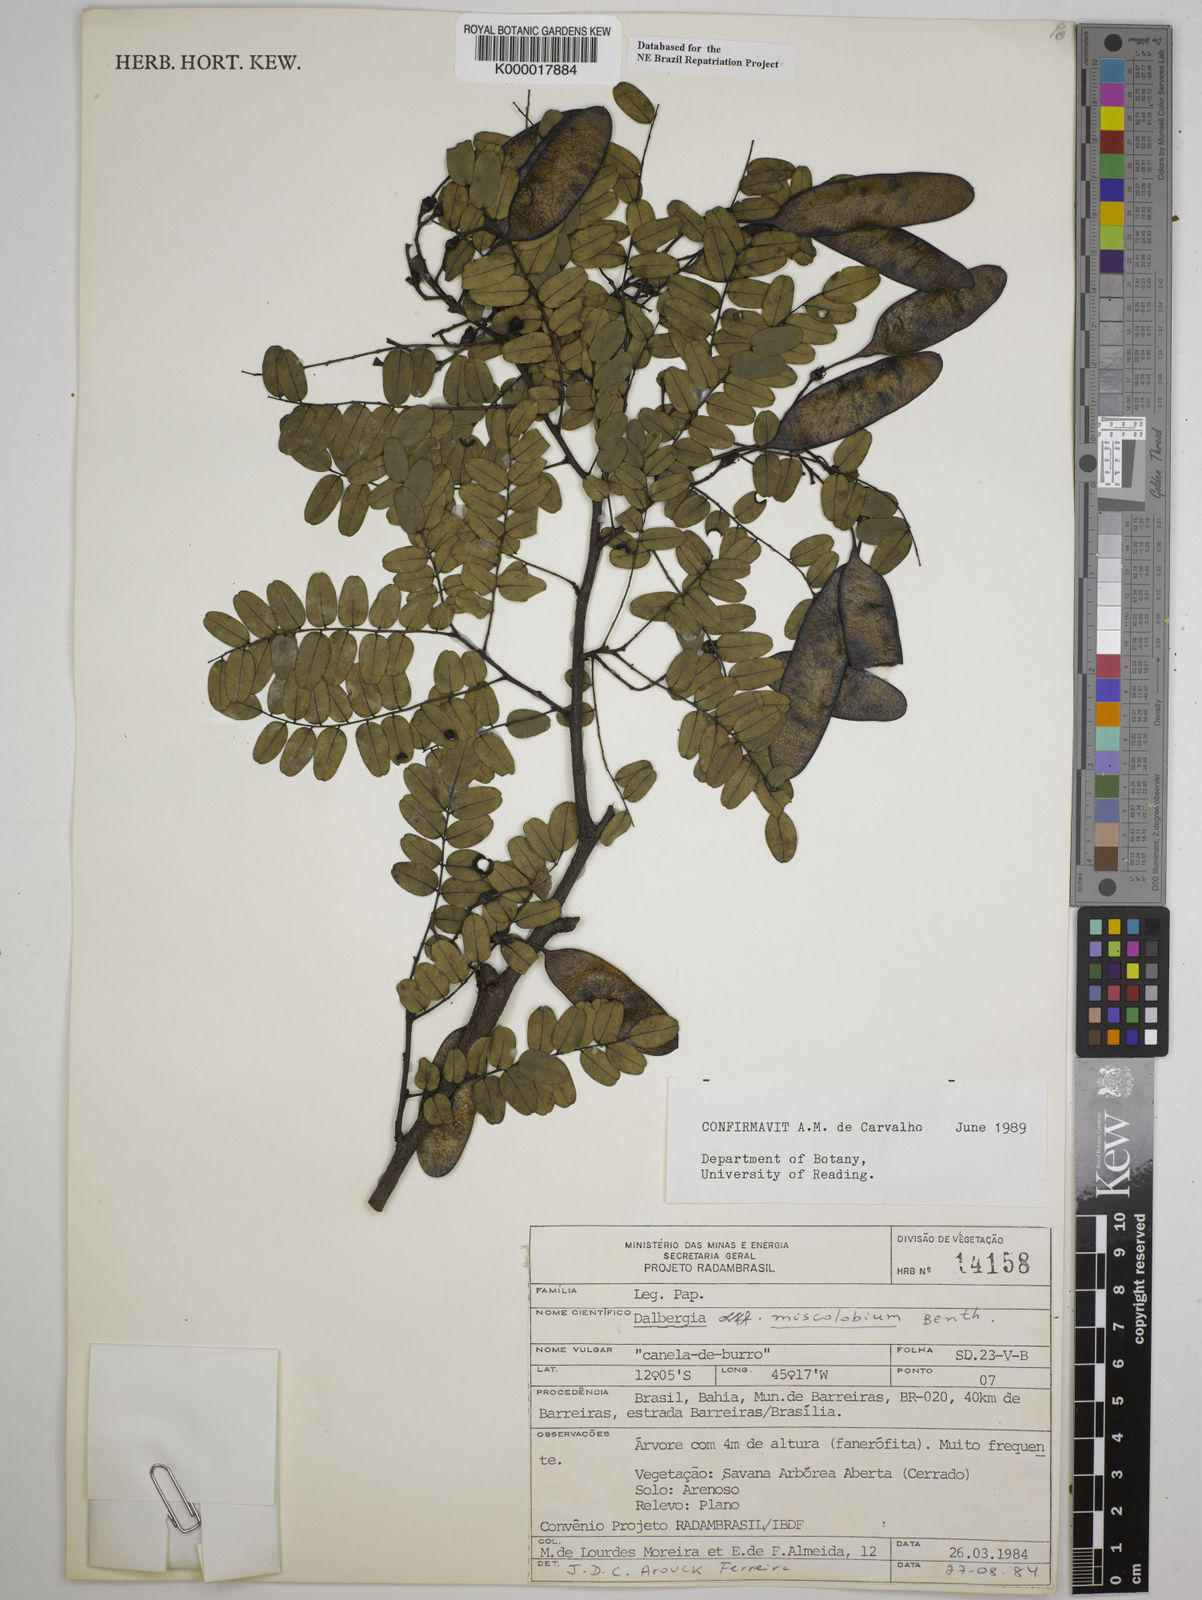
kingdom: Plantae
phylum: Tracheophyta
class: Magnoliopsida
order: Fabales
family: Fabaceae
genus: Dalbergia
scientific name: Dalbergia miscolobium
